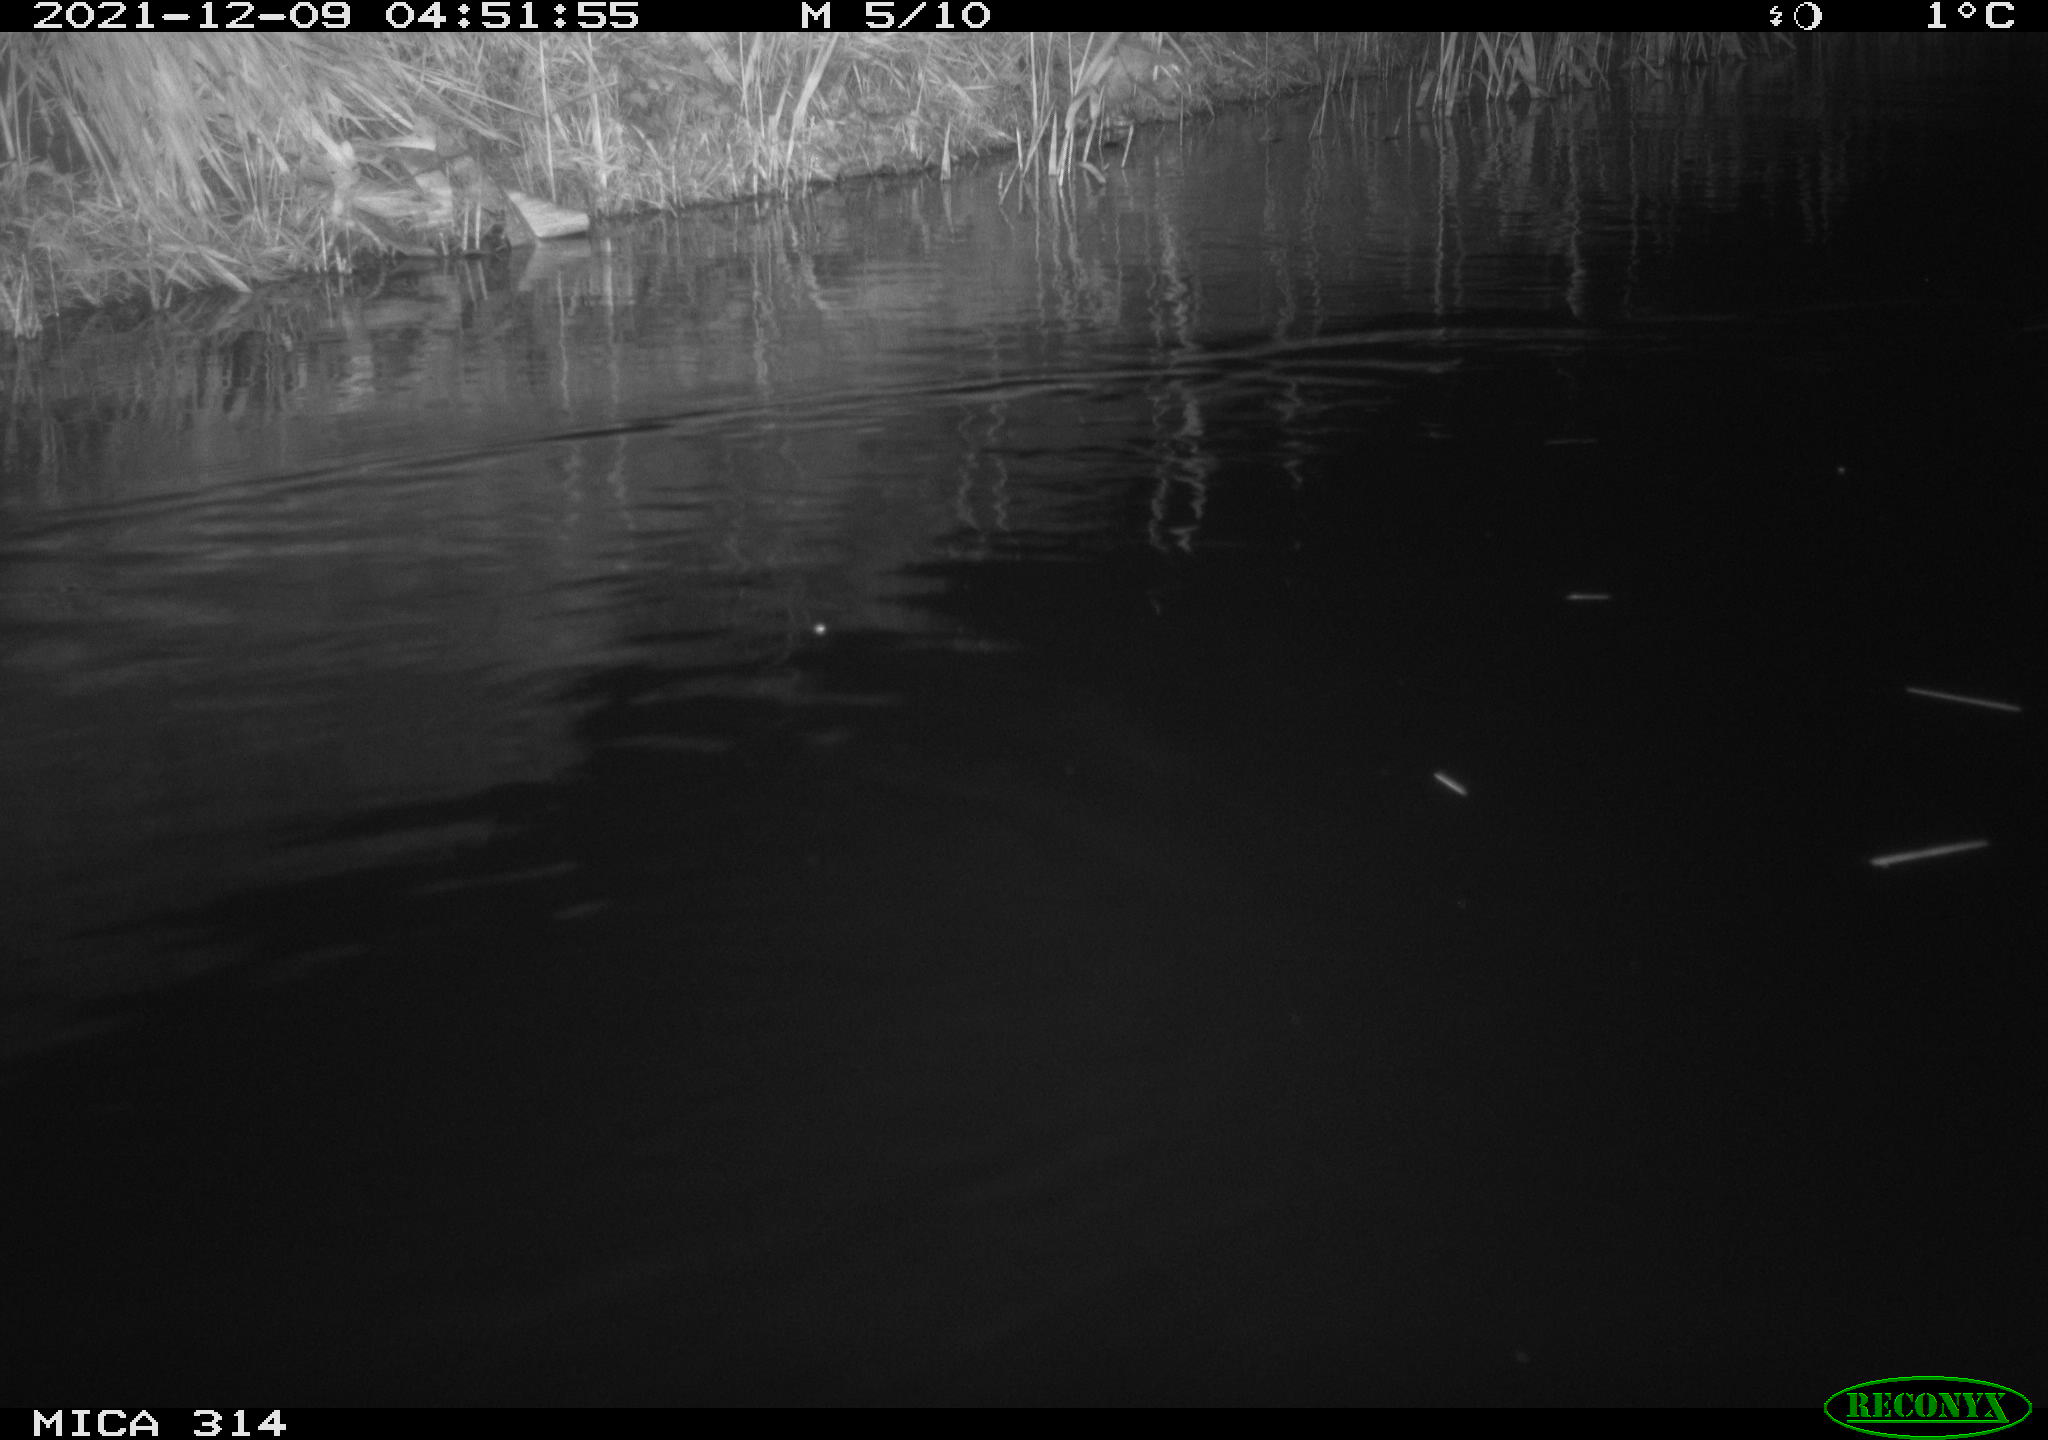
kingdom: Animalia
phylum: Chordata
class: Mammalia
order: Rodentia
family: Muridae
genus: Rattus
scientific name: Rattus norvegicus
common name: Brown rat
